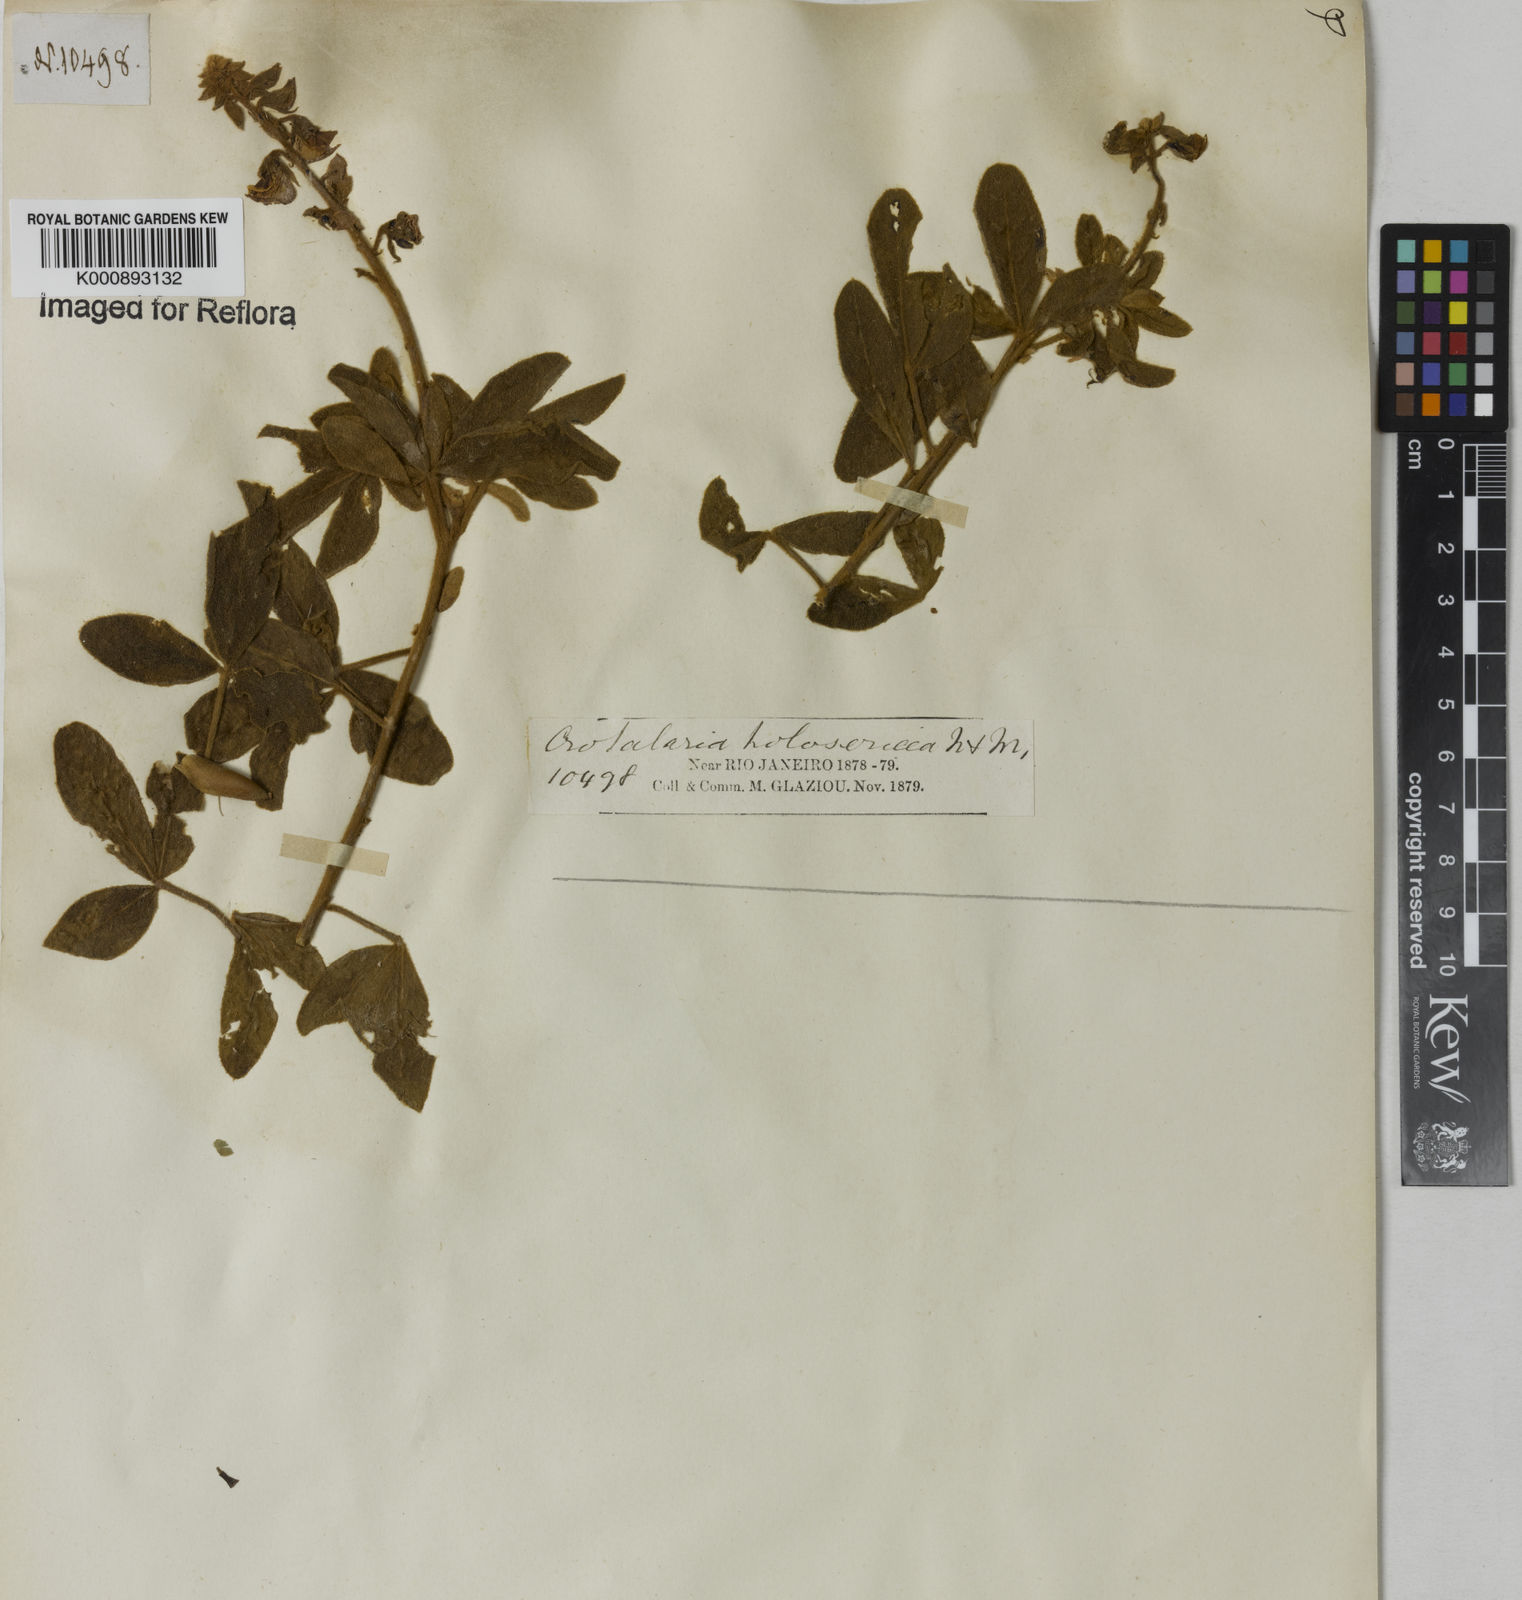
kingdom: Plantae
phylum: Tracheophyta
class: Magnoliopsida
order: Fabales
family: Fabaceae
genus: Crotalaria
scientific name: Crotalaria holosericea
